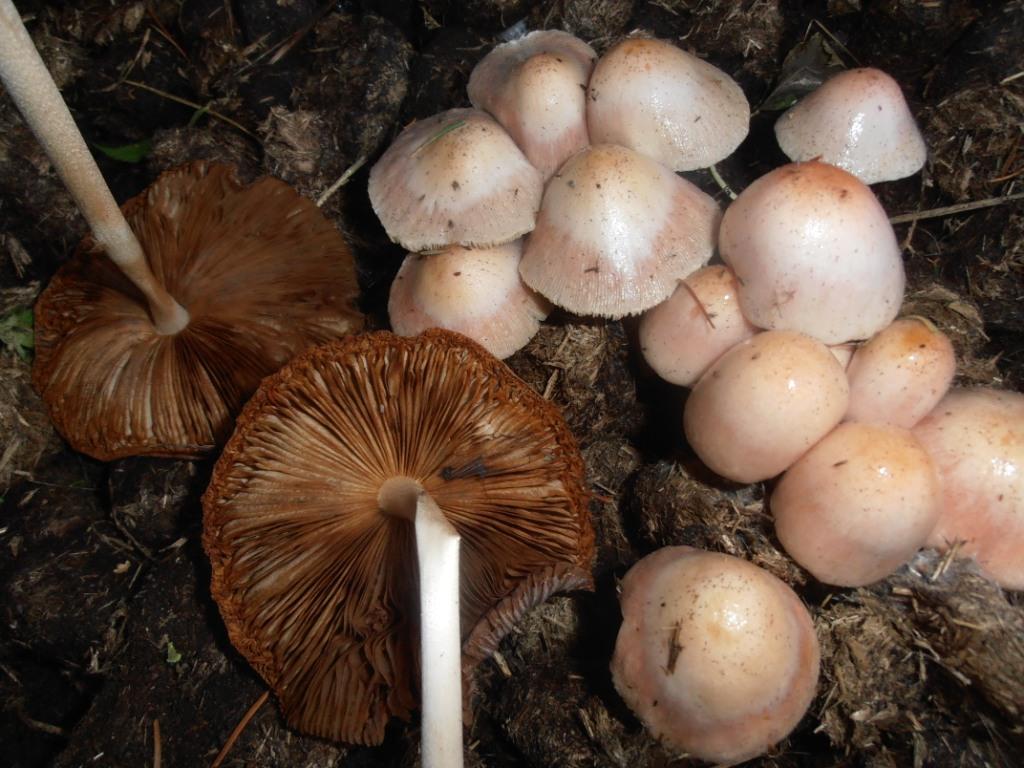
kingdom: Fungi
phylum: Basidiomycota
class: Agaricomycetes
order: Agaricales
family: Bolbitiaceae
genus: Bolbitius
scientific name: Bolbitius coprophilus
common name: rosa gulhat
